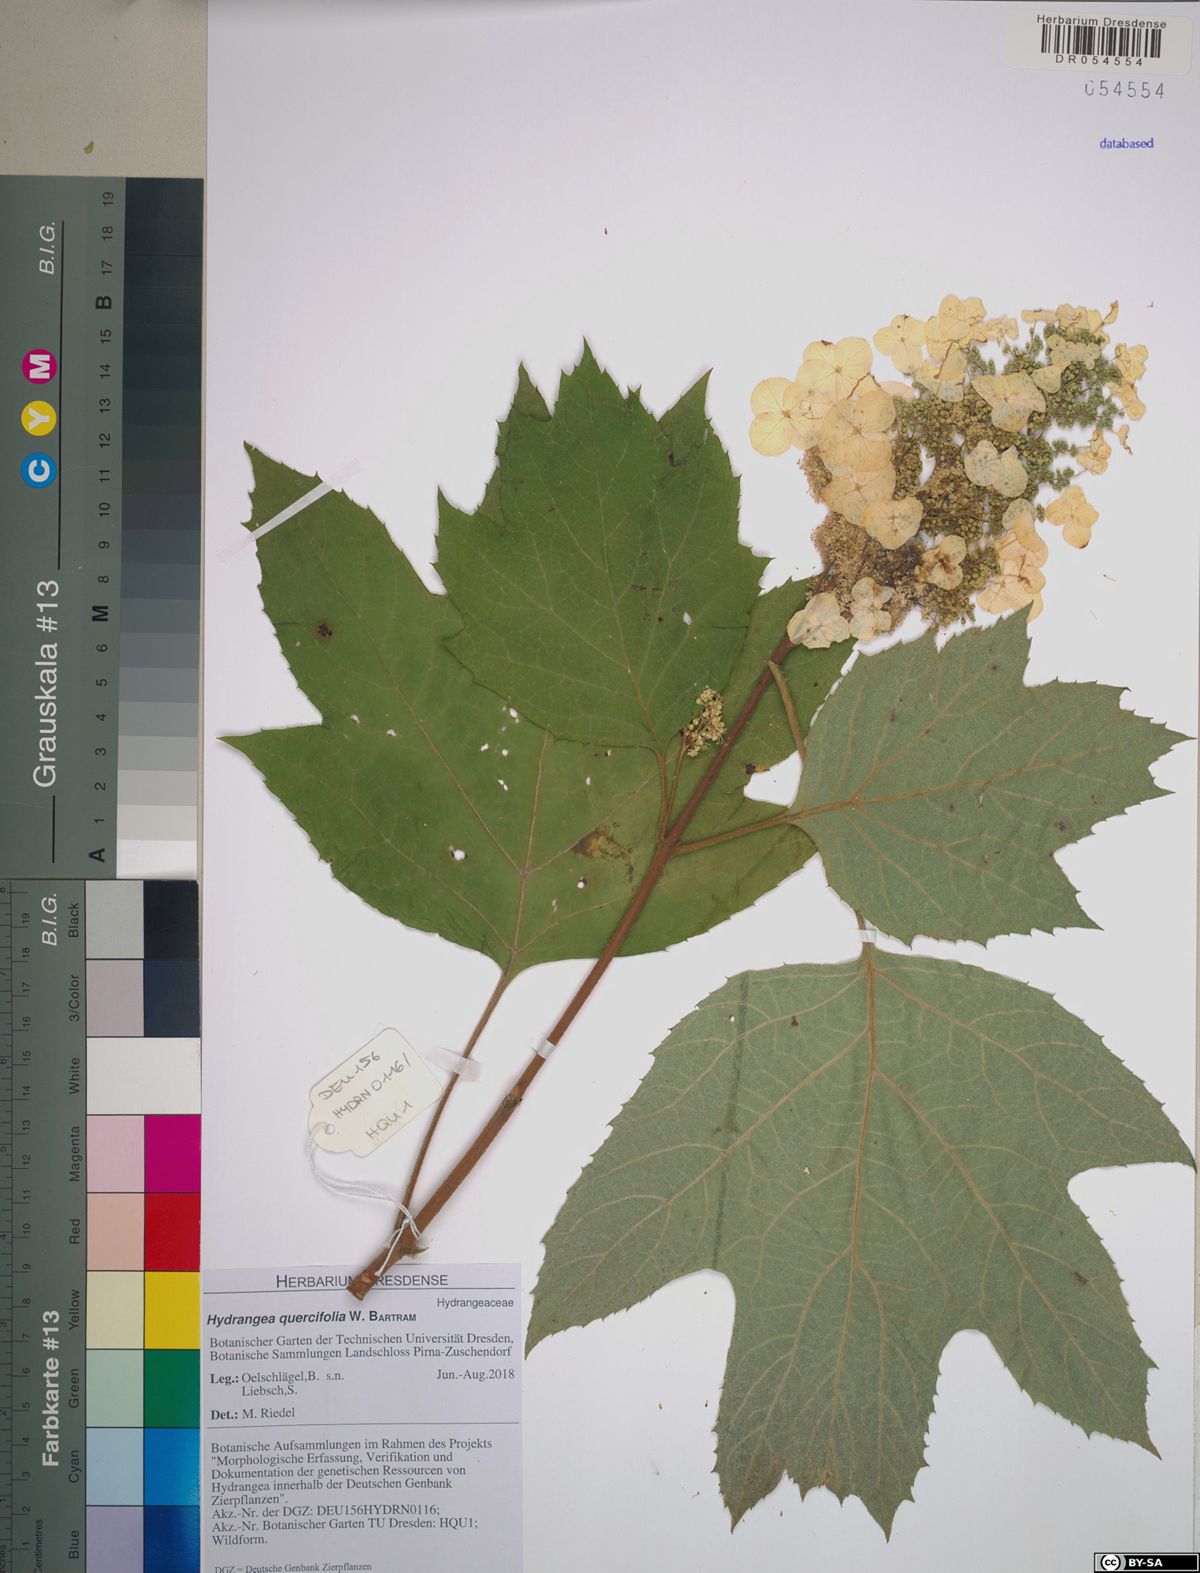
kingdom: Plantae
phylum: Tracheophyta
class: Magnoliopsida
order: Cornales
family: Hydrangeaceae
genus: Hydrangea
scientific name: Hydrangea quercifolia
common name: Oak-leaf hydrangea
